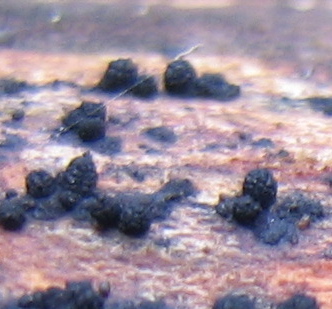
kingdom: Fungi
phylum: Ascomycota
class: Sordariomycetes
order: Sordariales
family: Nitschkeaceae
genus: Bertia
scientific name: Bertia
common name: morbærkerne
